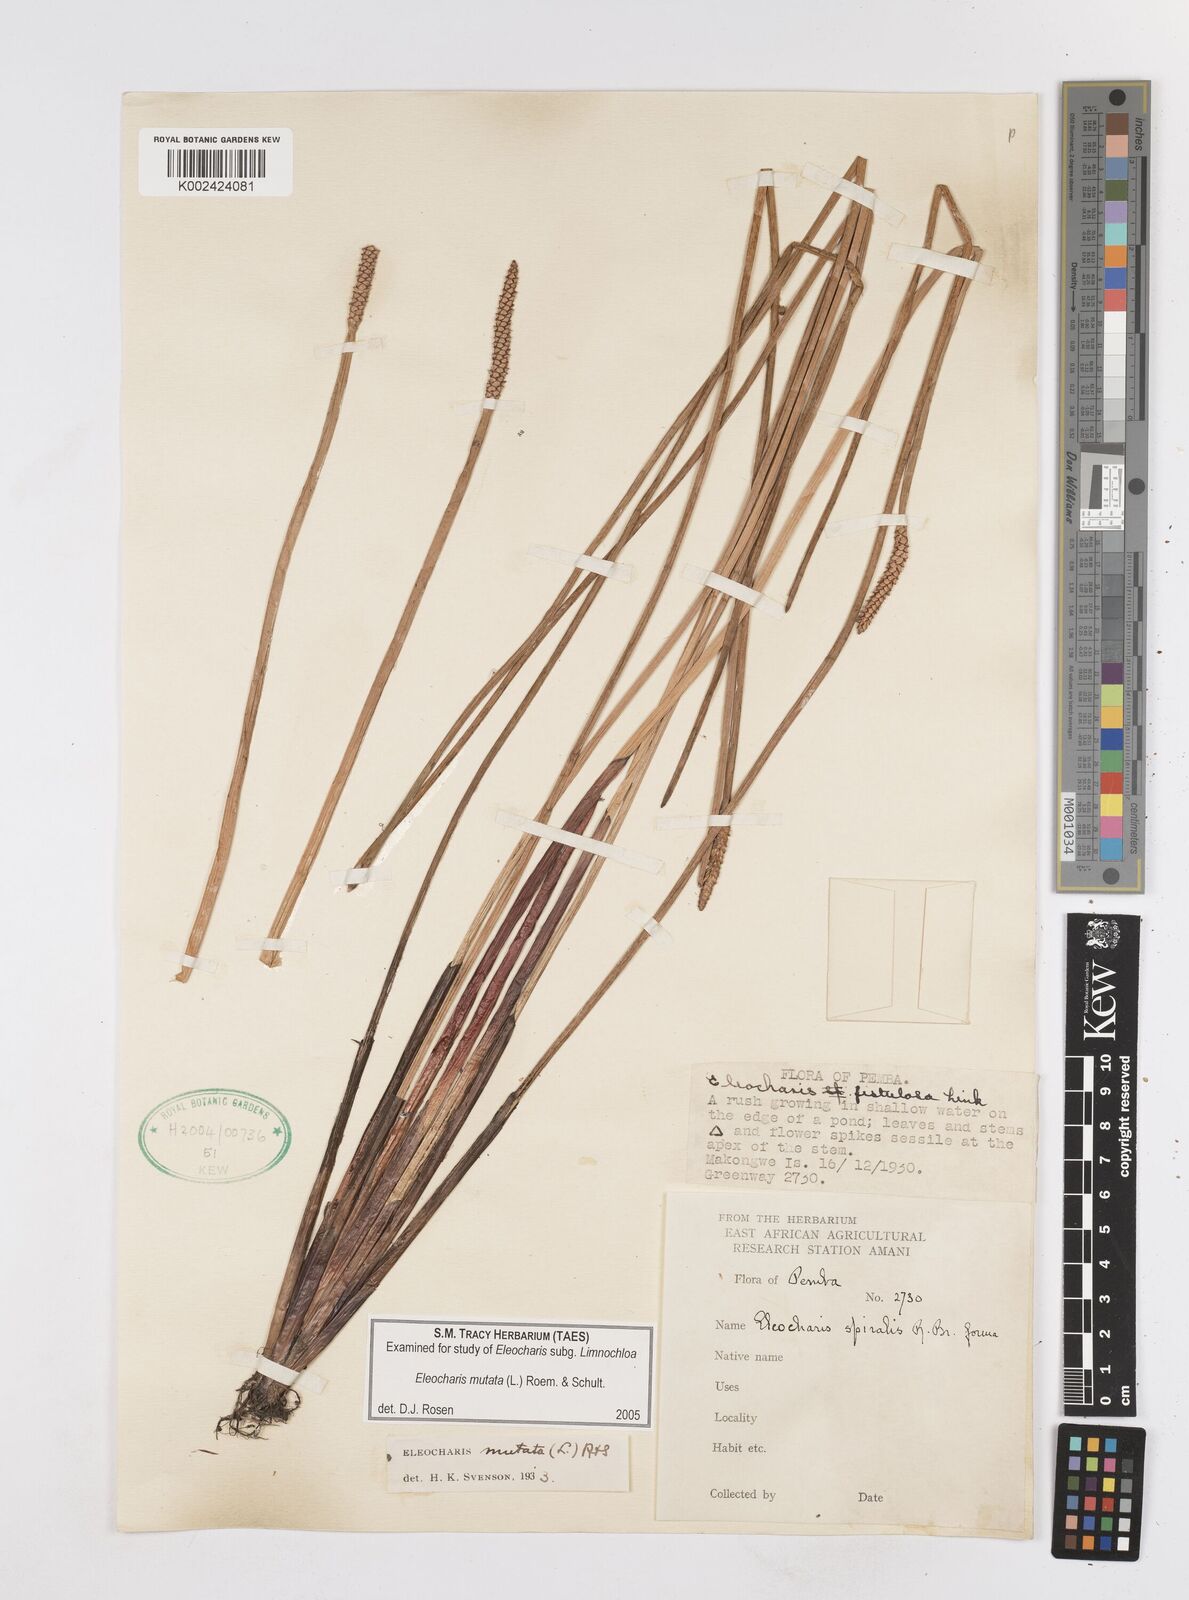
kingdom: Plantae
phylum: Tracheophyta
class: Liliopsida
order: Poales
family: Cyperaceae
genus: Eleocharis
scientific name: Eleocharis mutata
